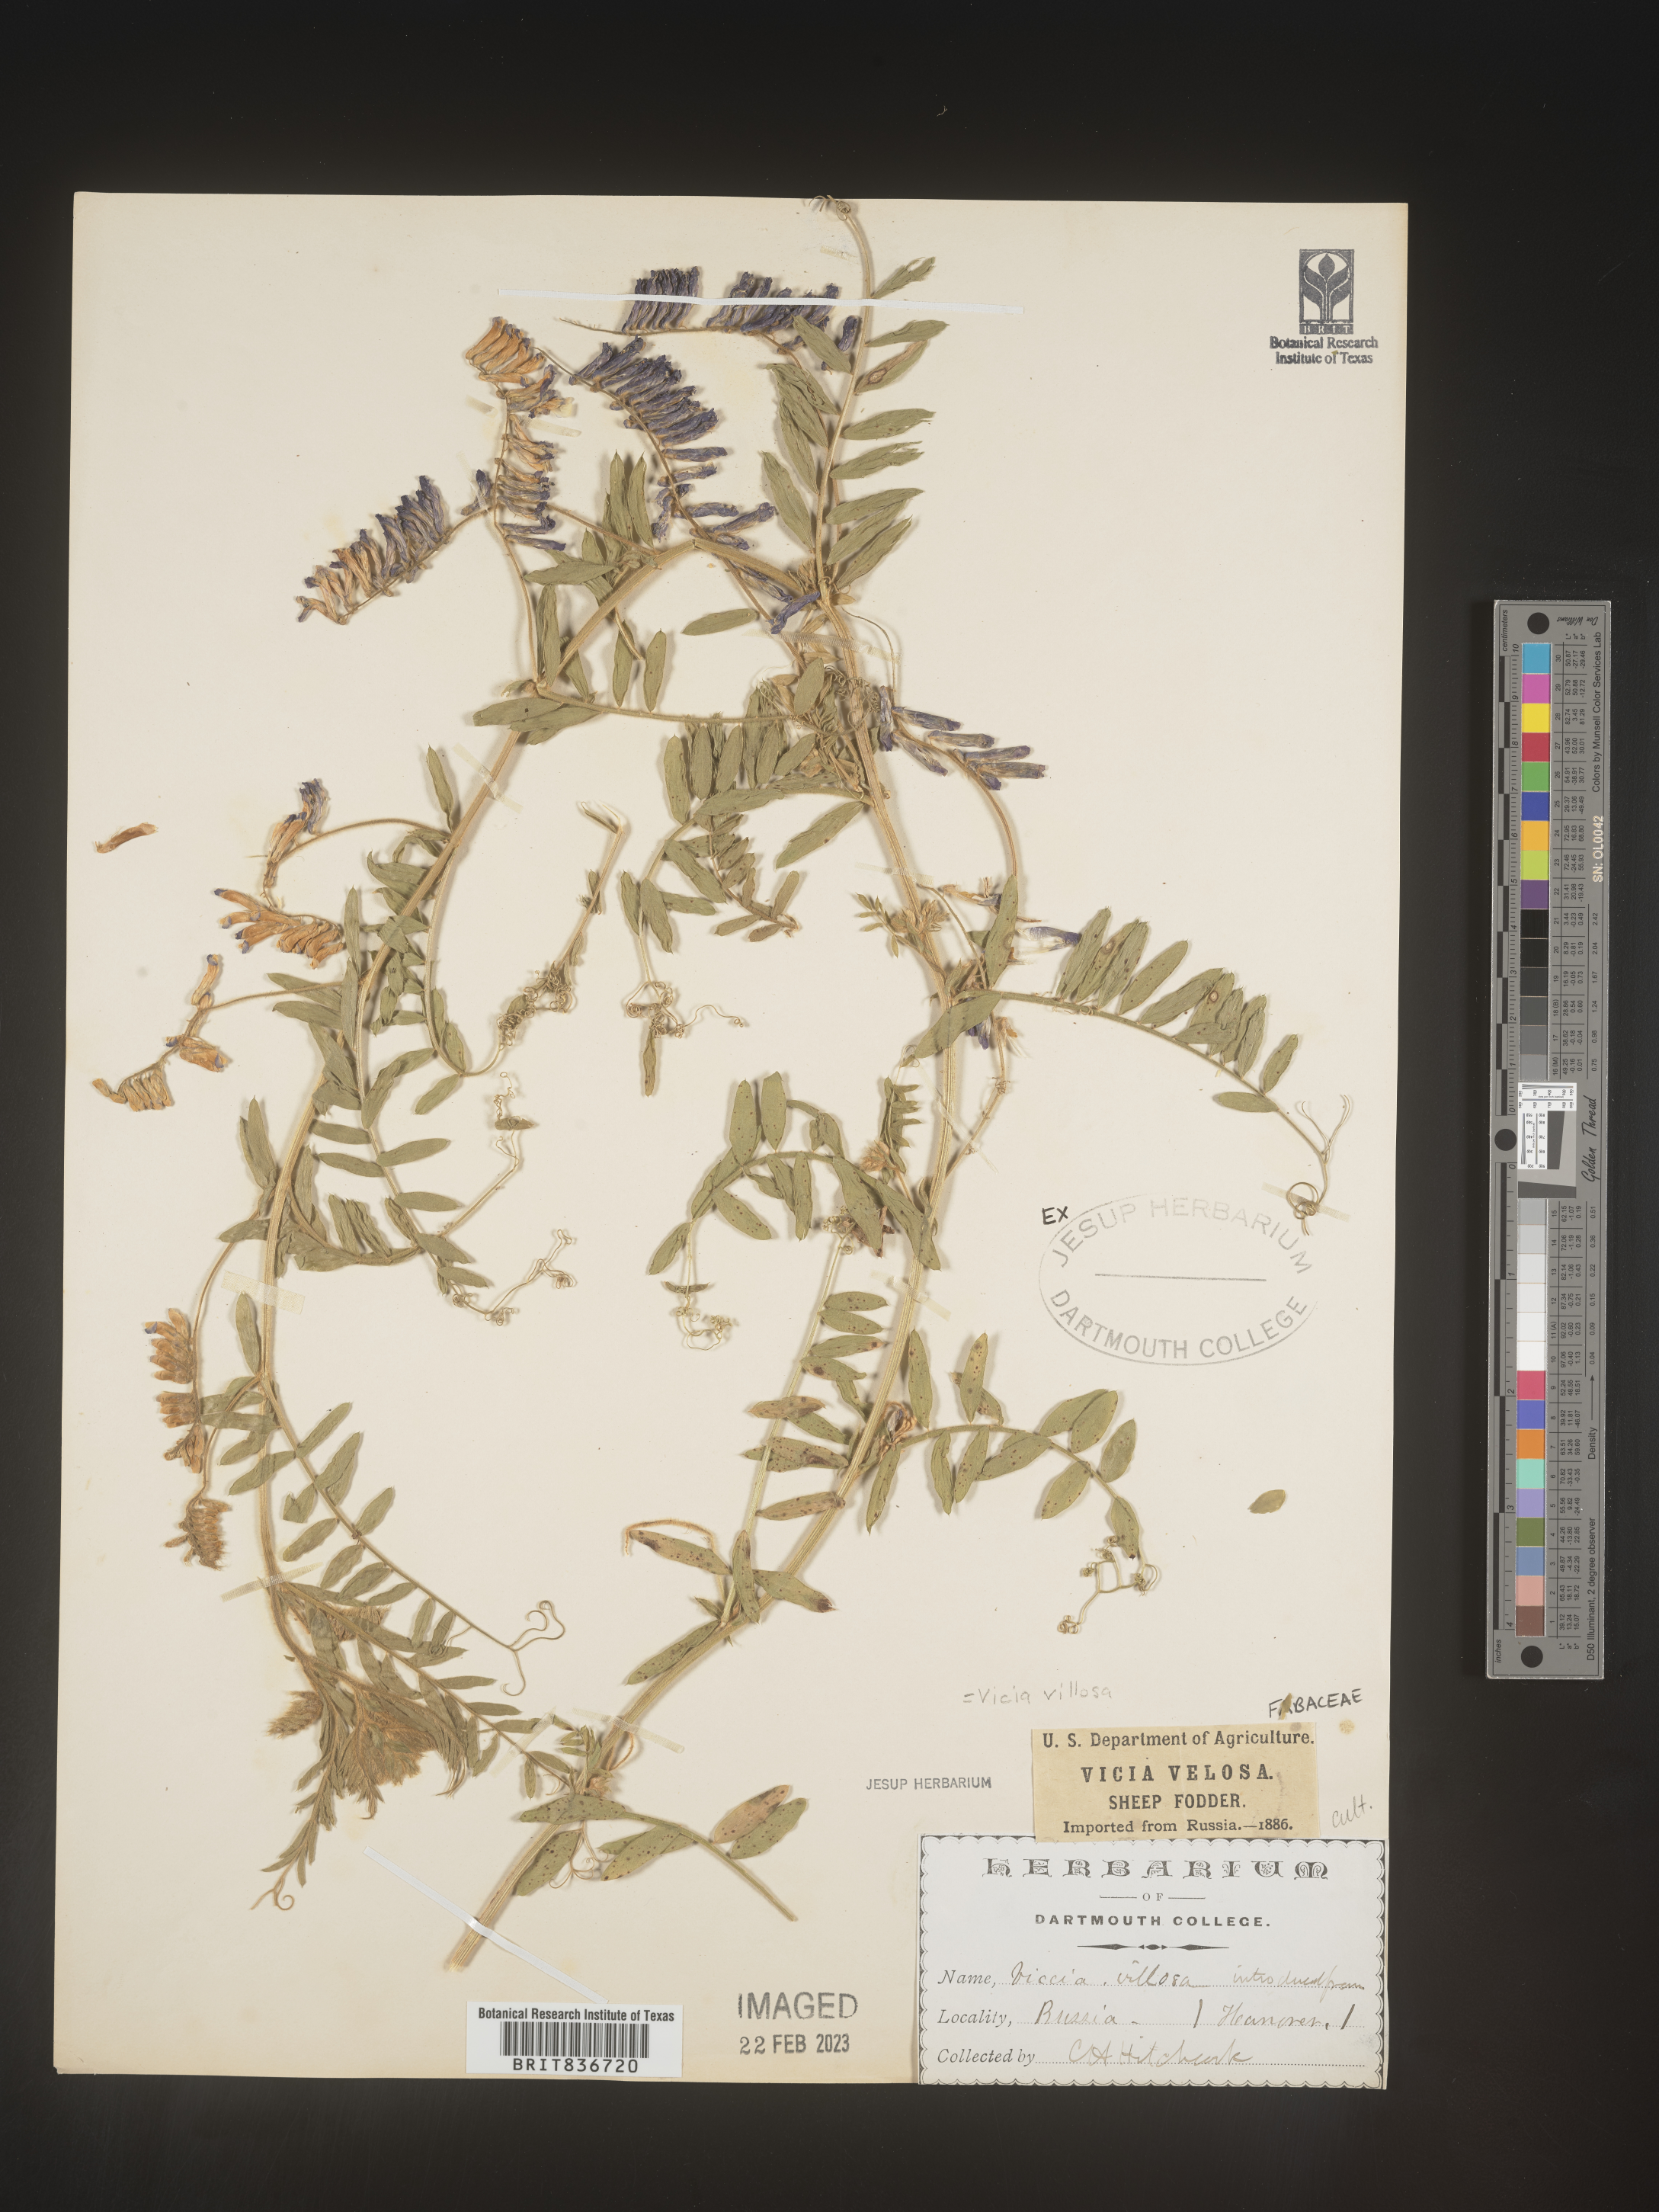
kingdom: Plantae
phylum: Tracheophyta
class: Magnoliopsida
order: Fabales
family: Fabaceae
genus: Vicia
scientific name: Vicia sylvatica
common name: Wood vetch
